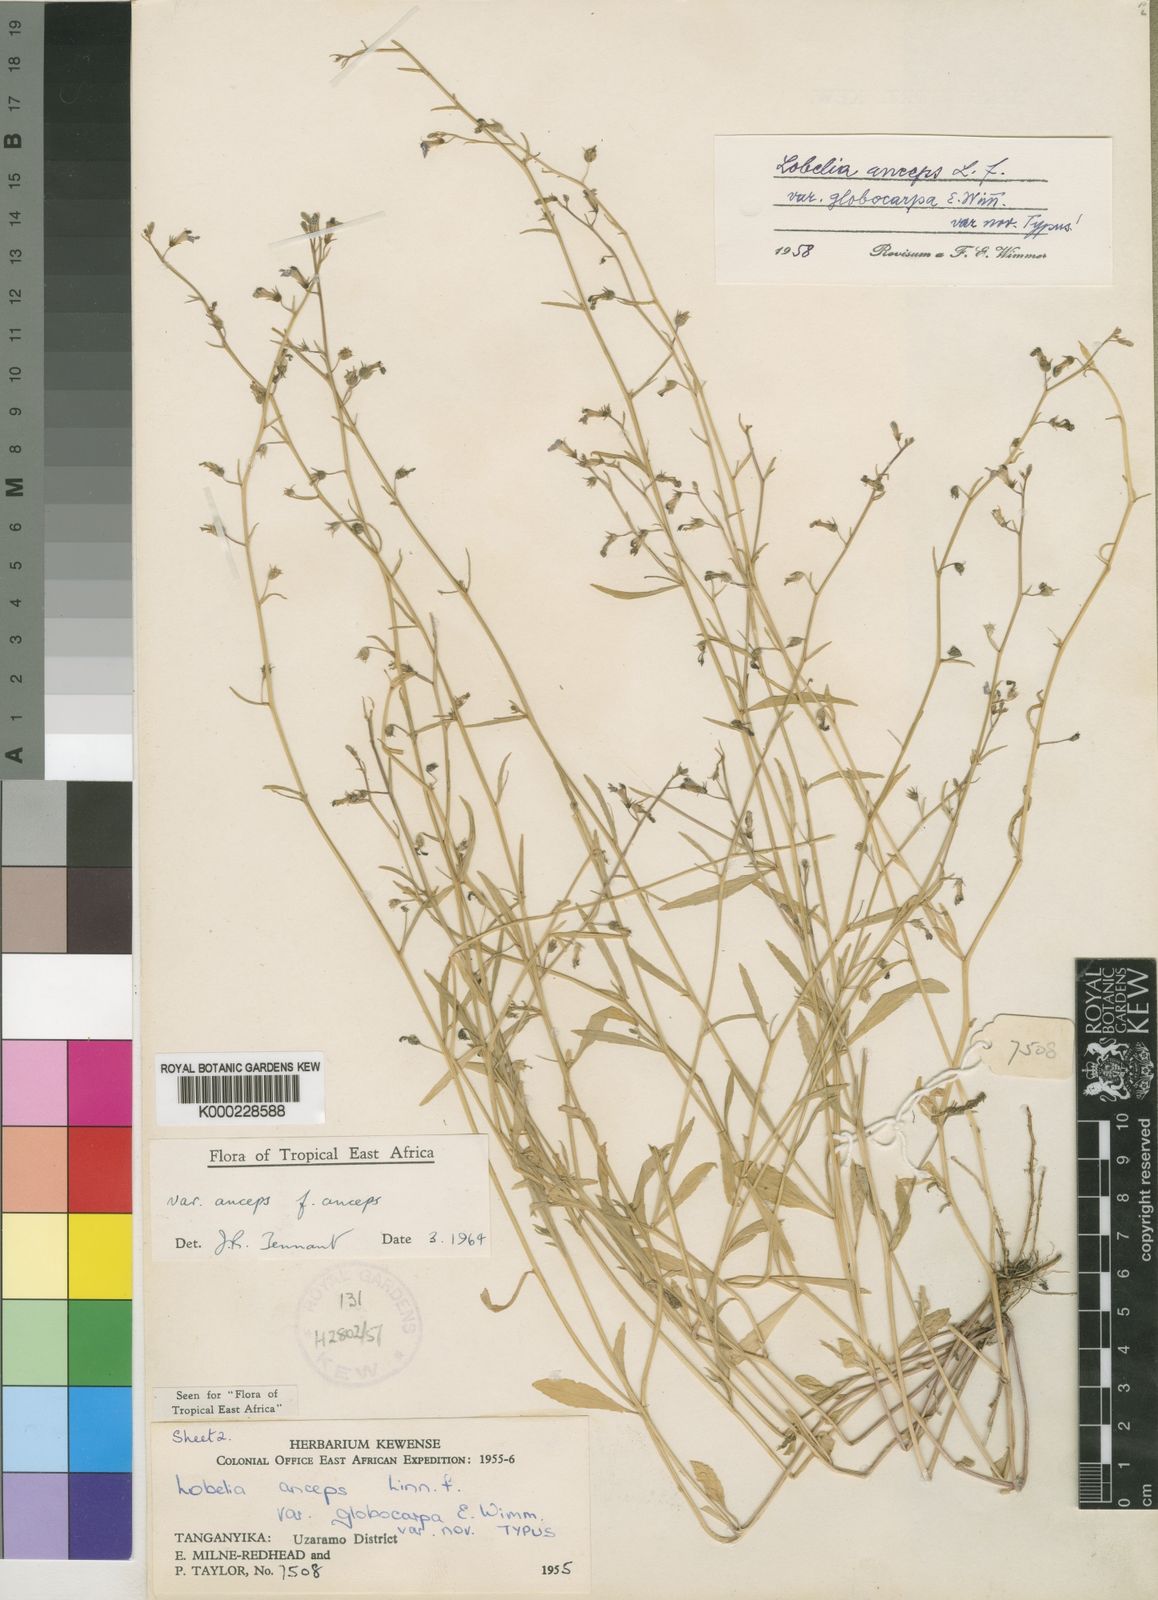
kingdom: Plantae
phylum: Tracheophyta
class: Magnoliopsida
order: Asterales
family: Campanulaceae
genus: Lobelia
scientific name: Lobelia anceps
